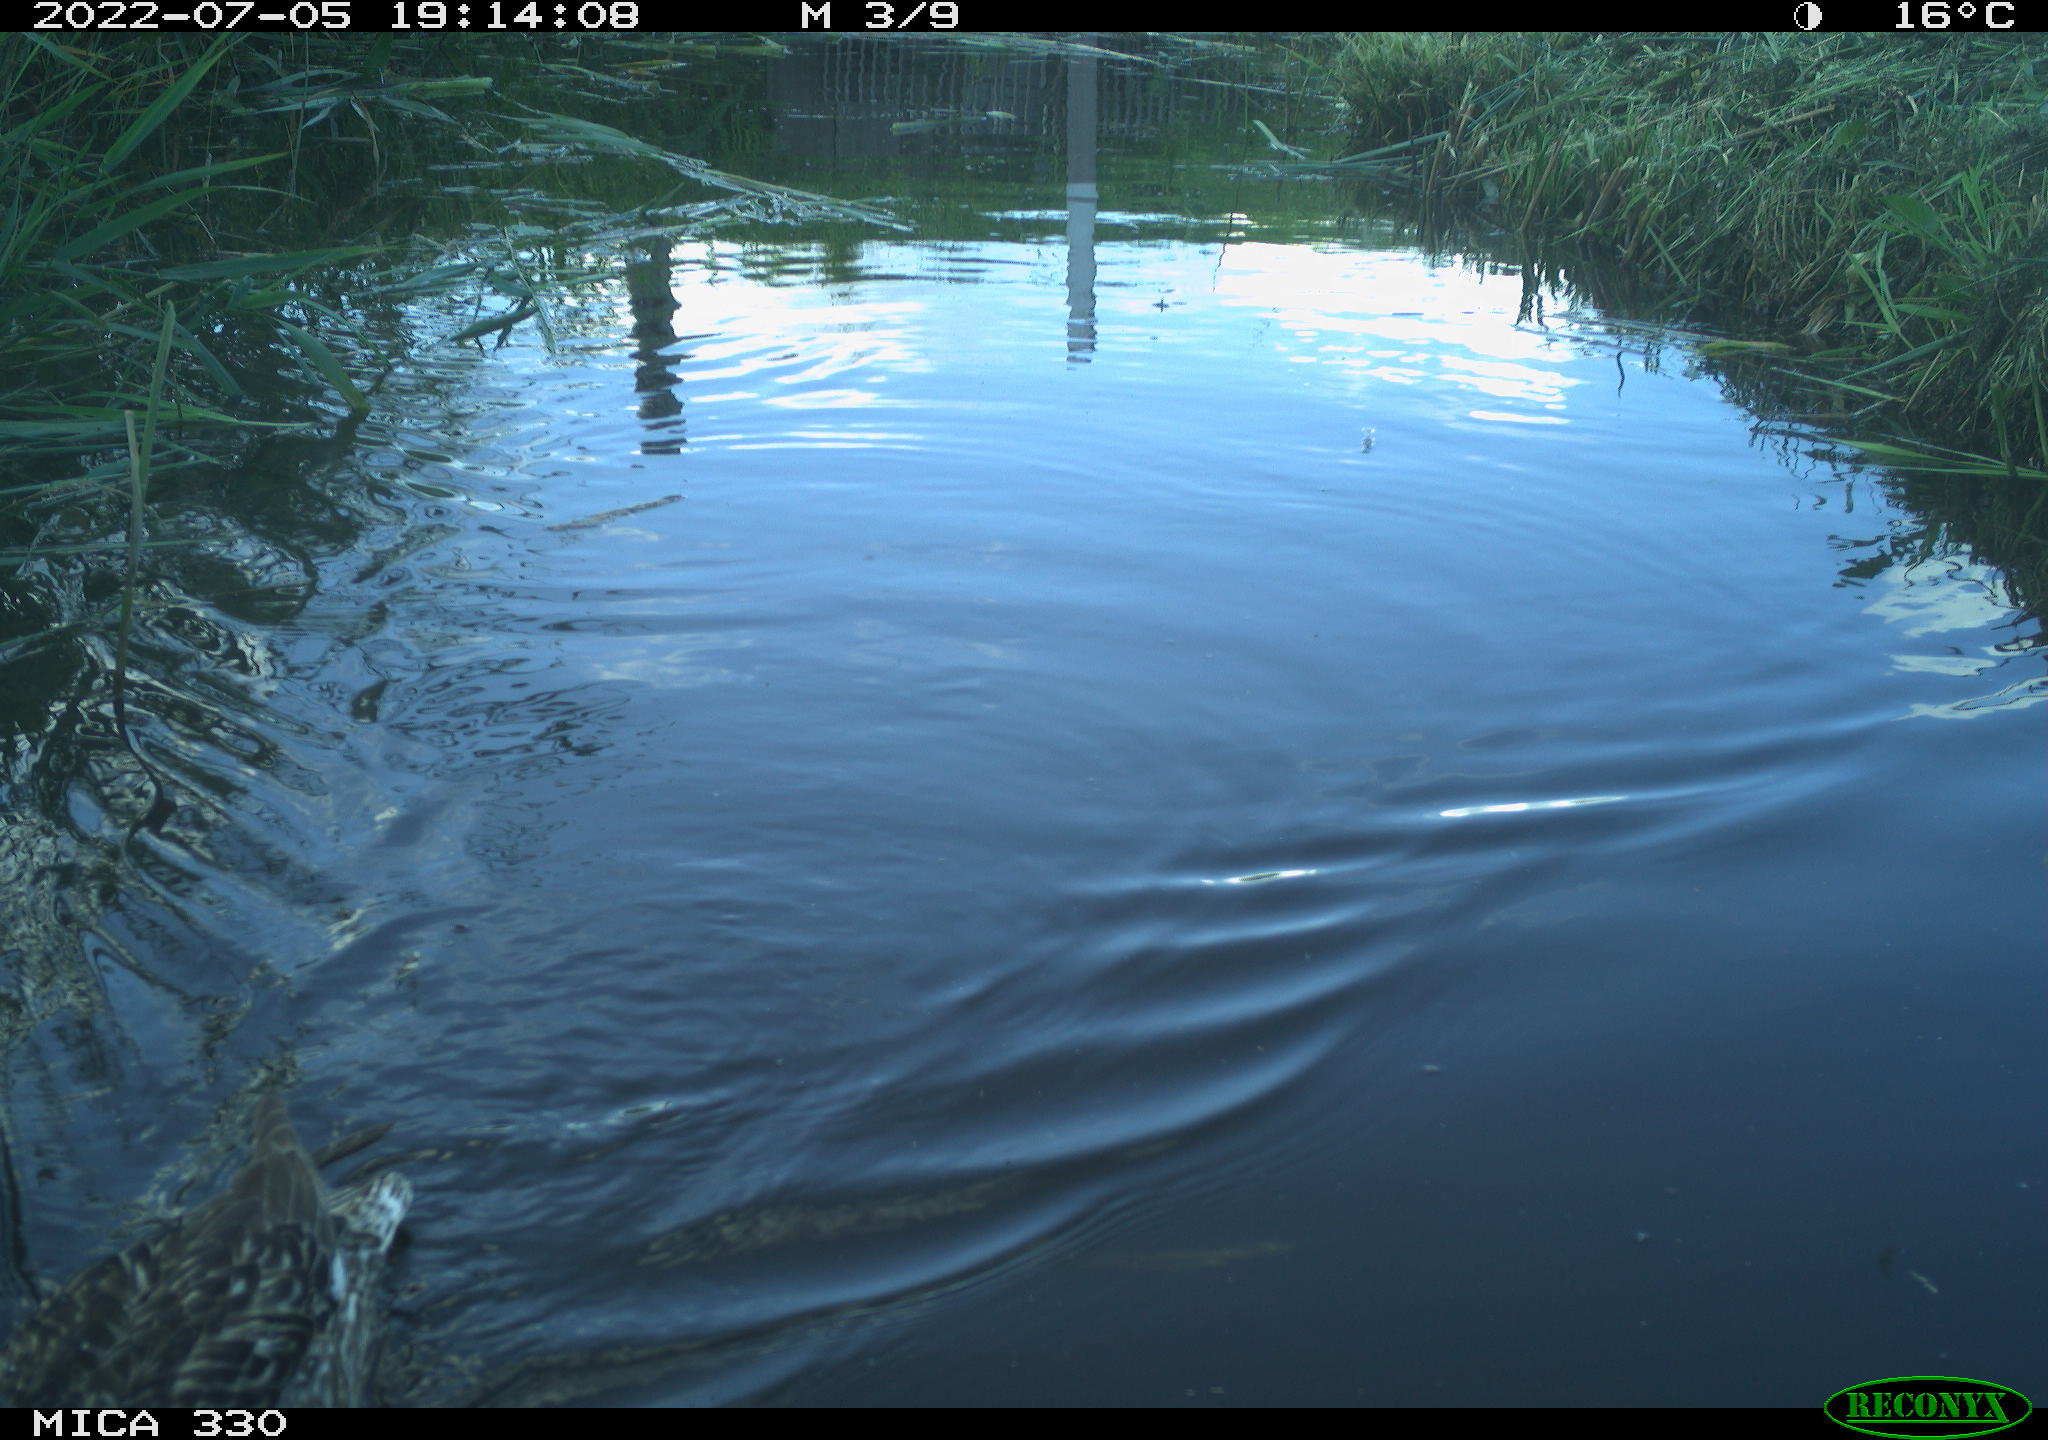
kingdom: Animalia
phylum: Chordata
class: Aves
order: Anseriformes
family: Anatidae
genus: Anas
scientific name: Anas platyrhynchos
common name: Mallard
